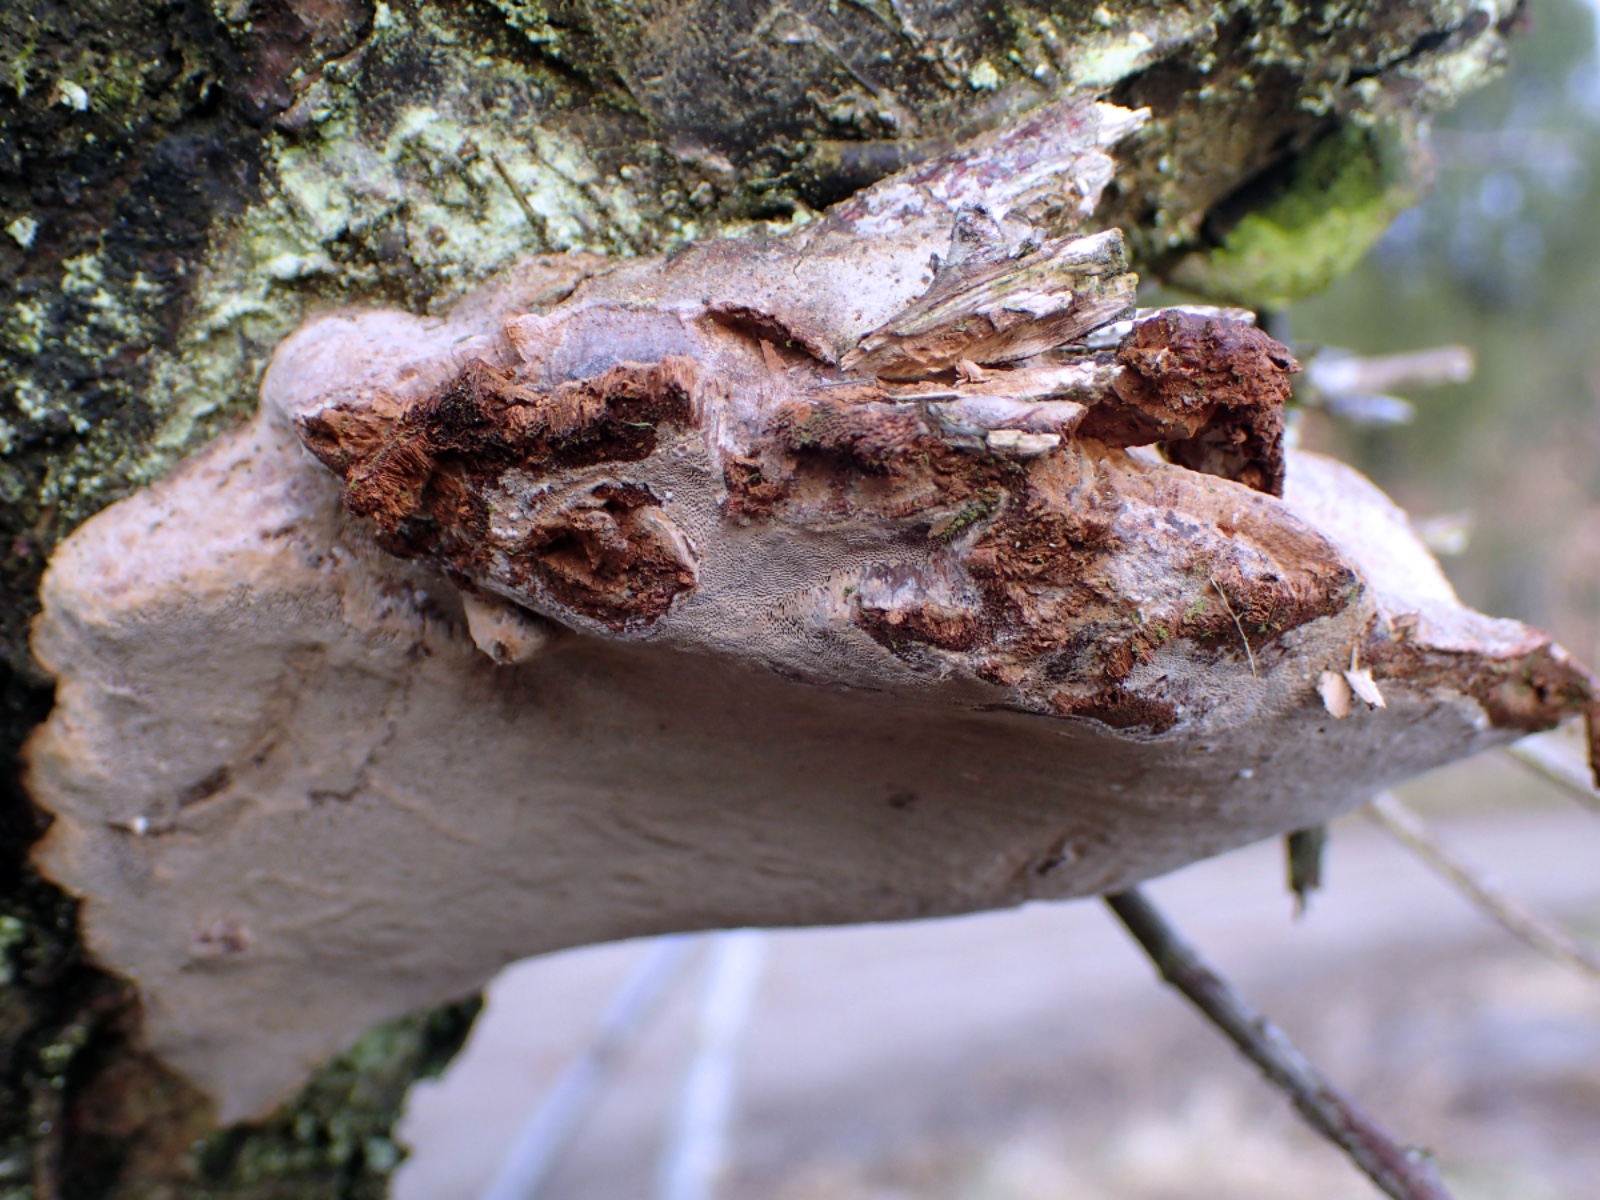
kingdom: Fungi
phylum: Basidiomycota
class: Agaricomycetes
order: Hymenochaetales
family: Hymenochaetaceae
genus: Phellinus
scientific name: Phellinus pomaceus
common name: blomme-ildporesvamp
